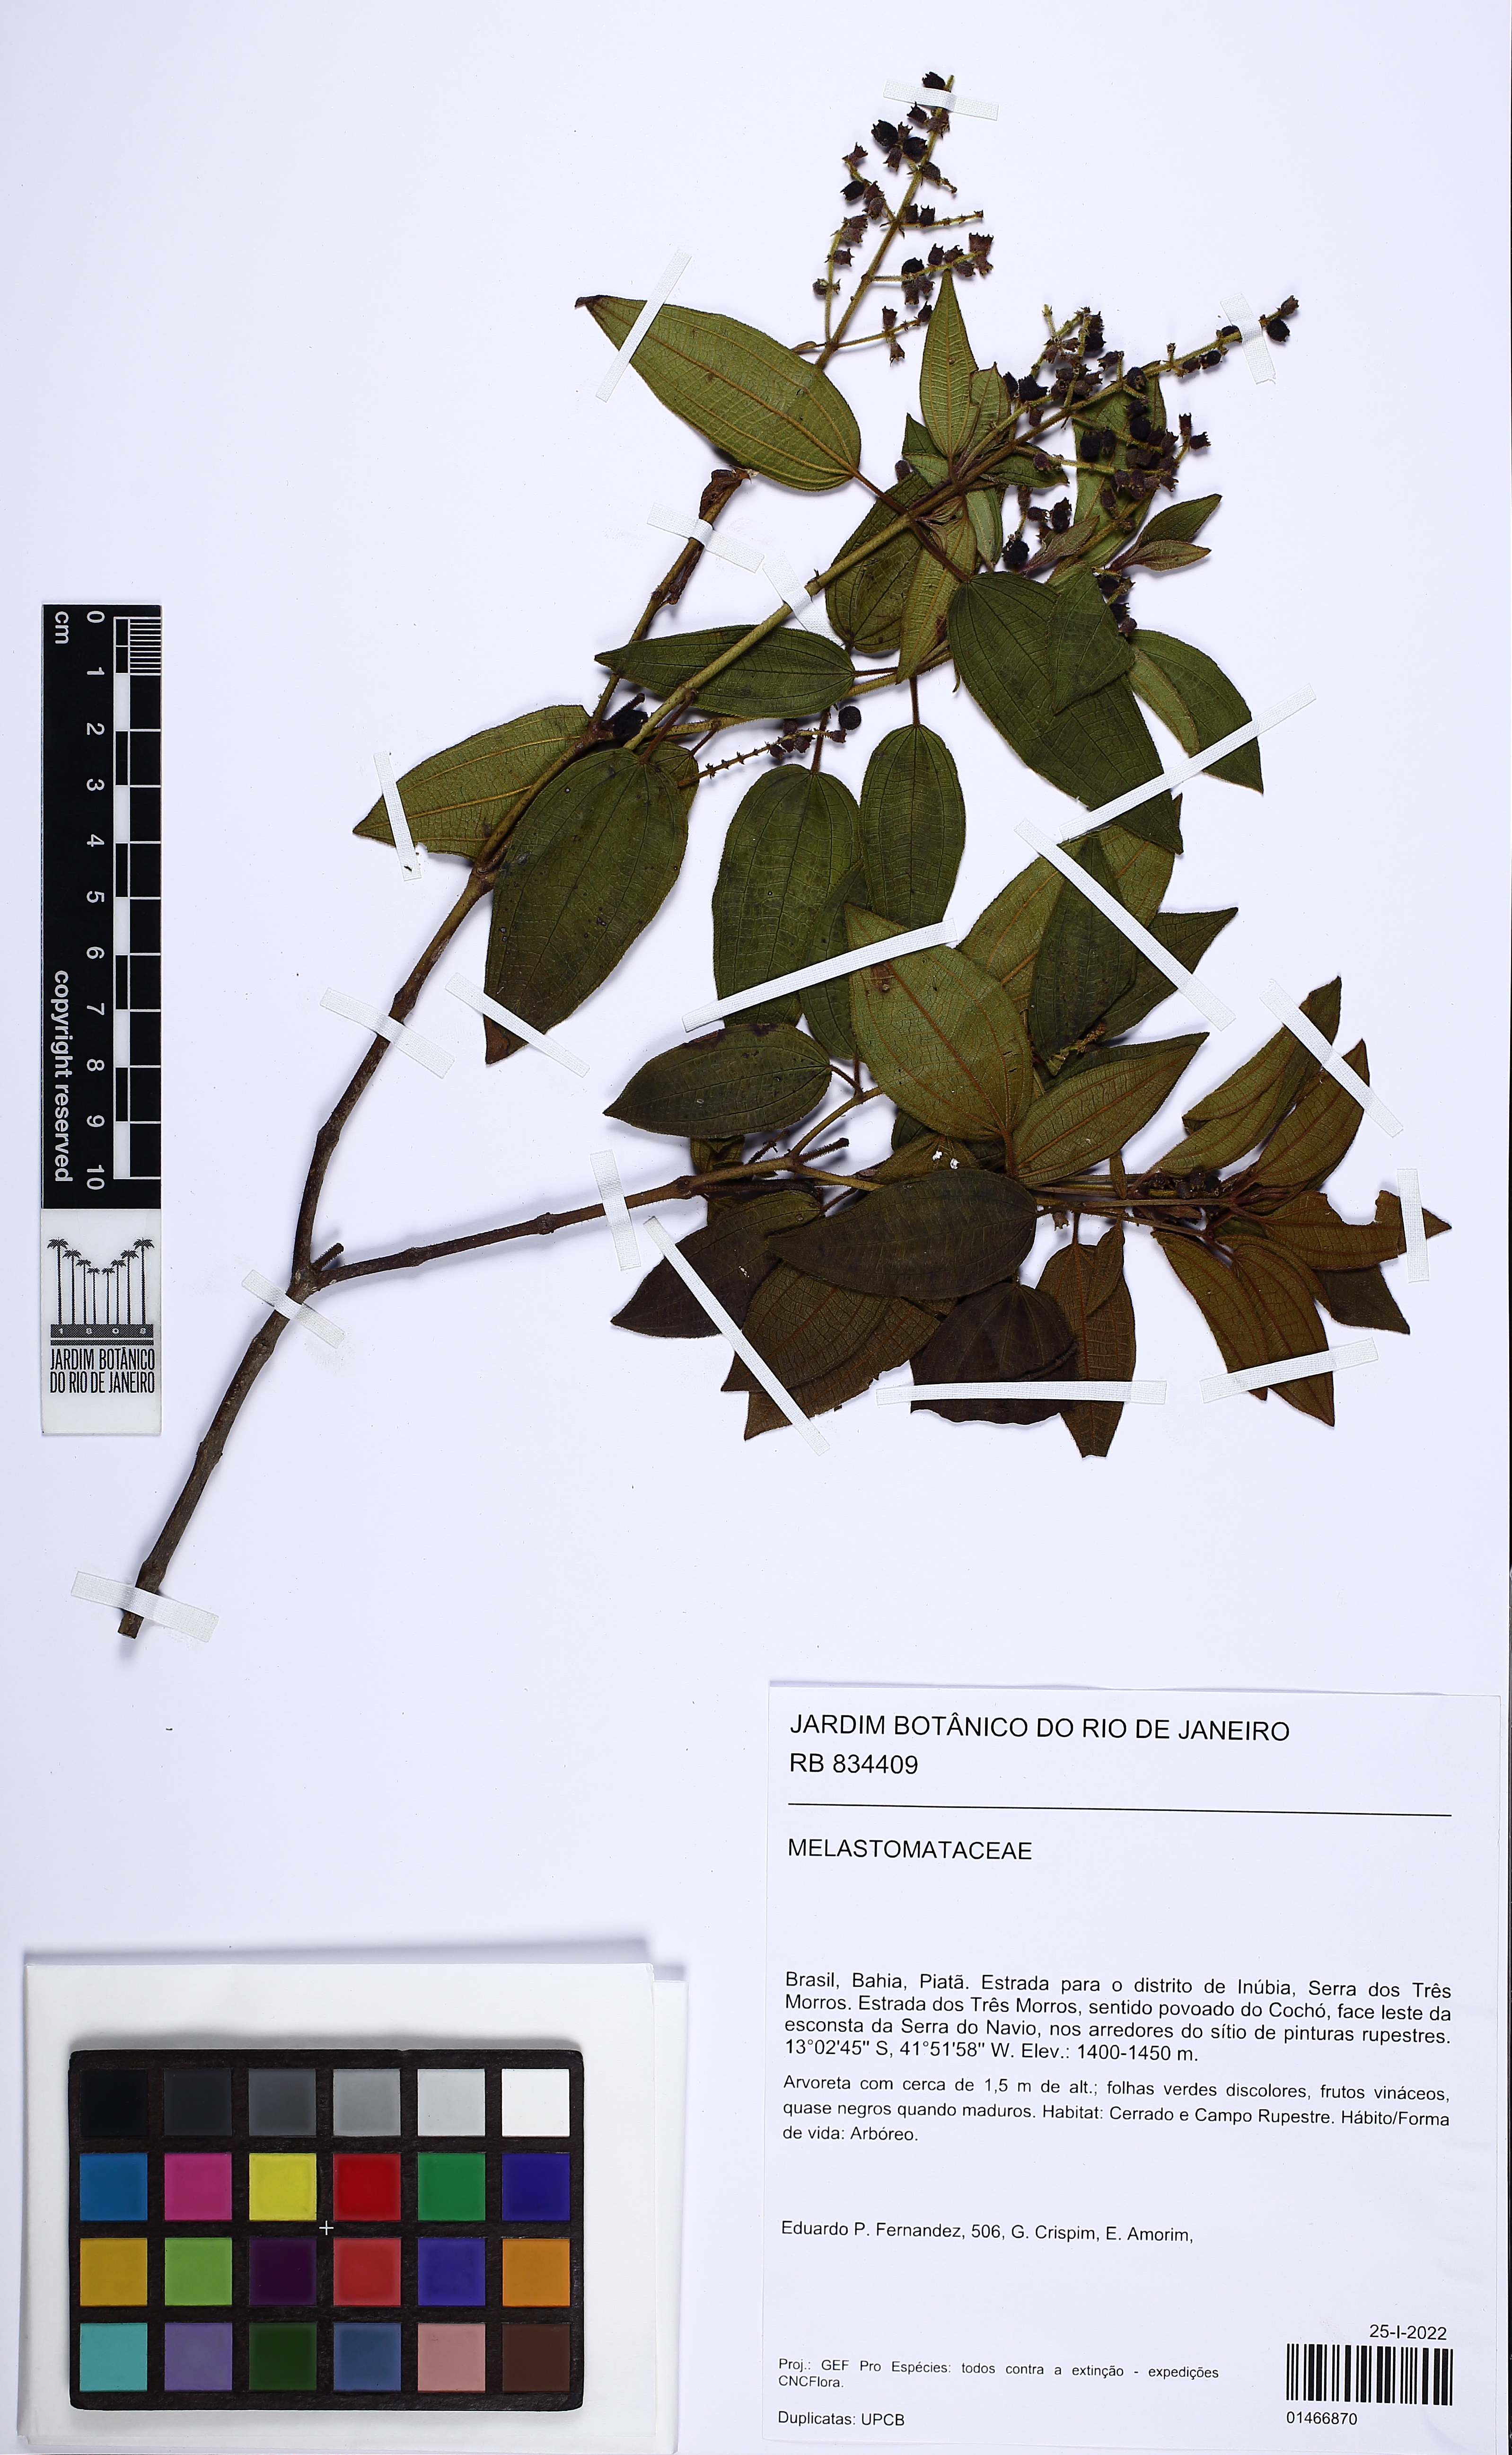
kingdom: Plantae
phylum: Tracheophyta
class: Magnoliopsida
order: Myrtales
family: Melastomataceae
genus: Miconia
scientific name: Miconia
